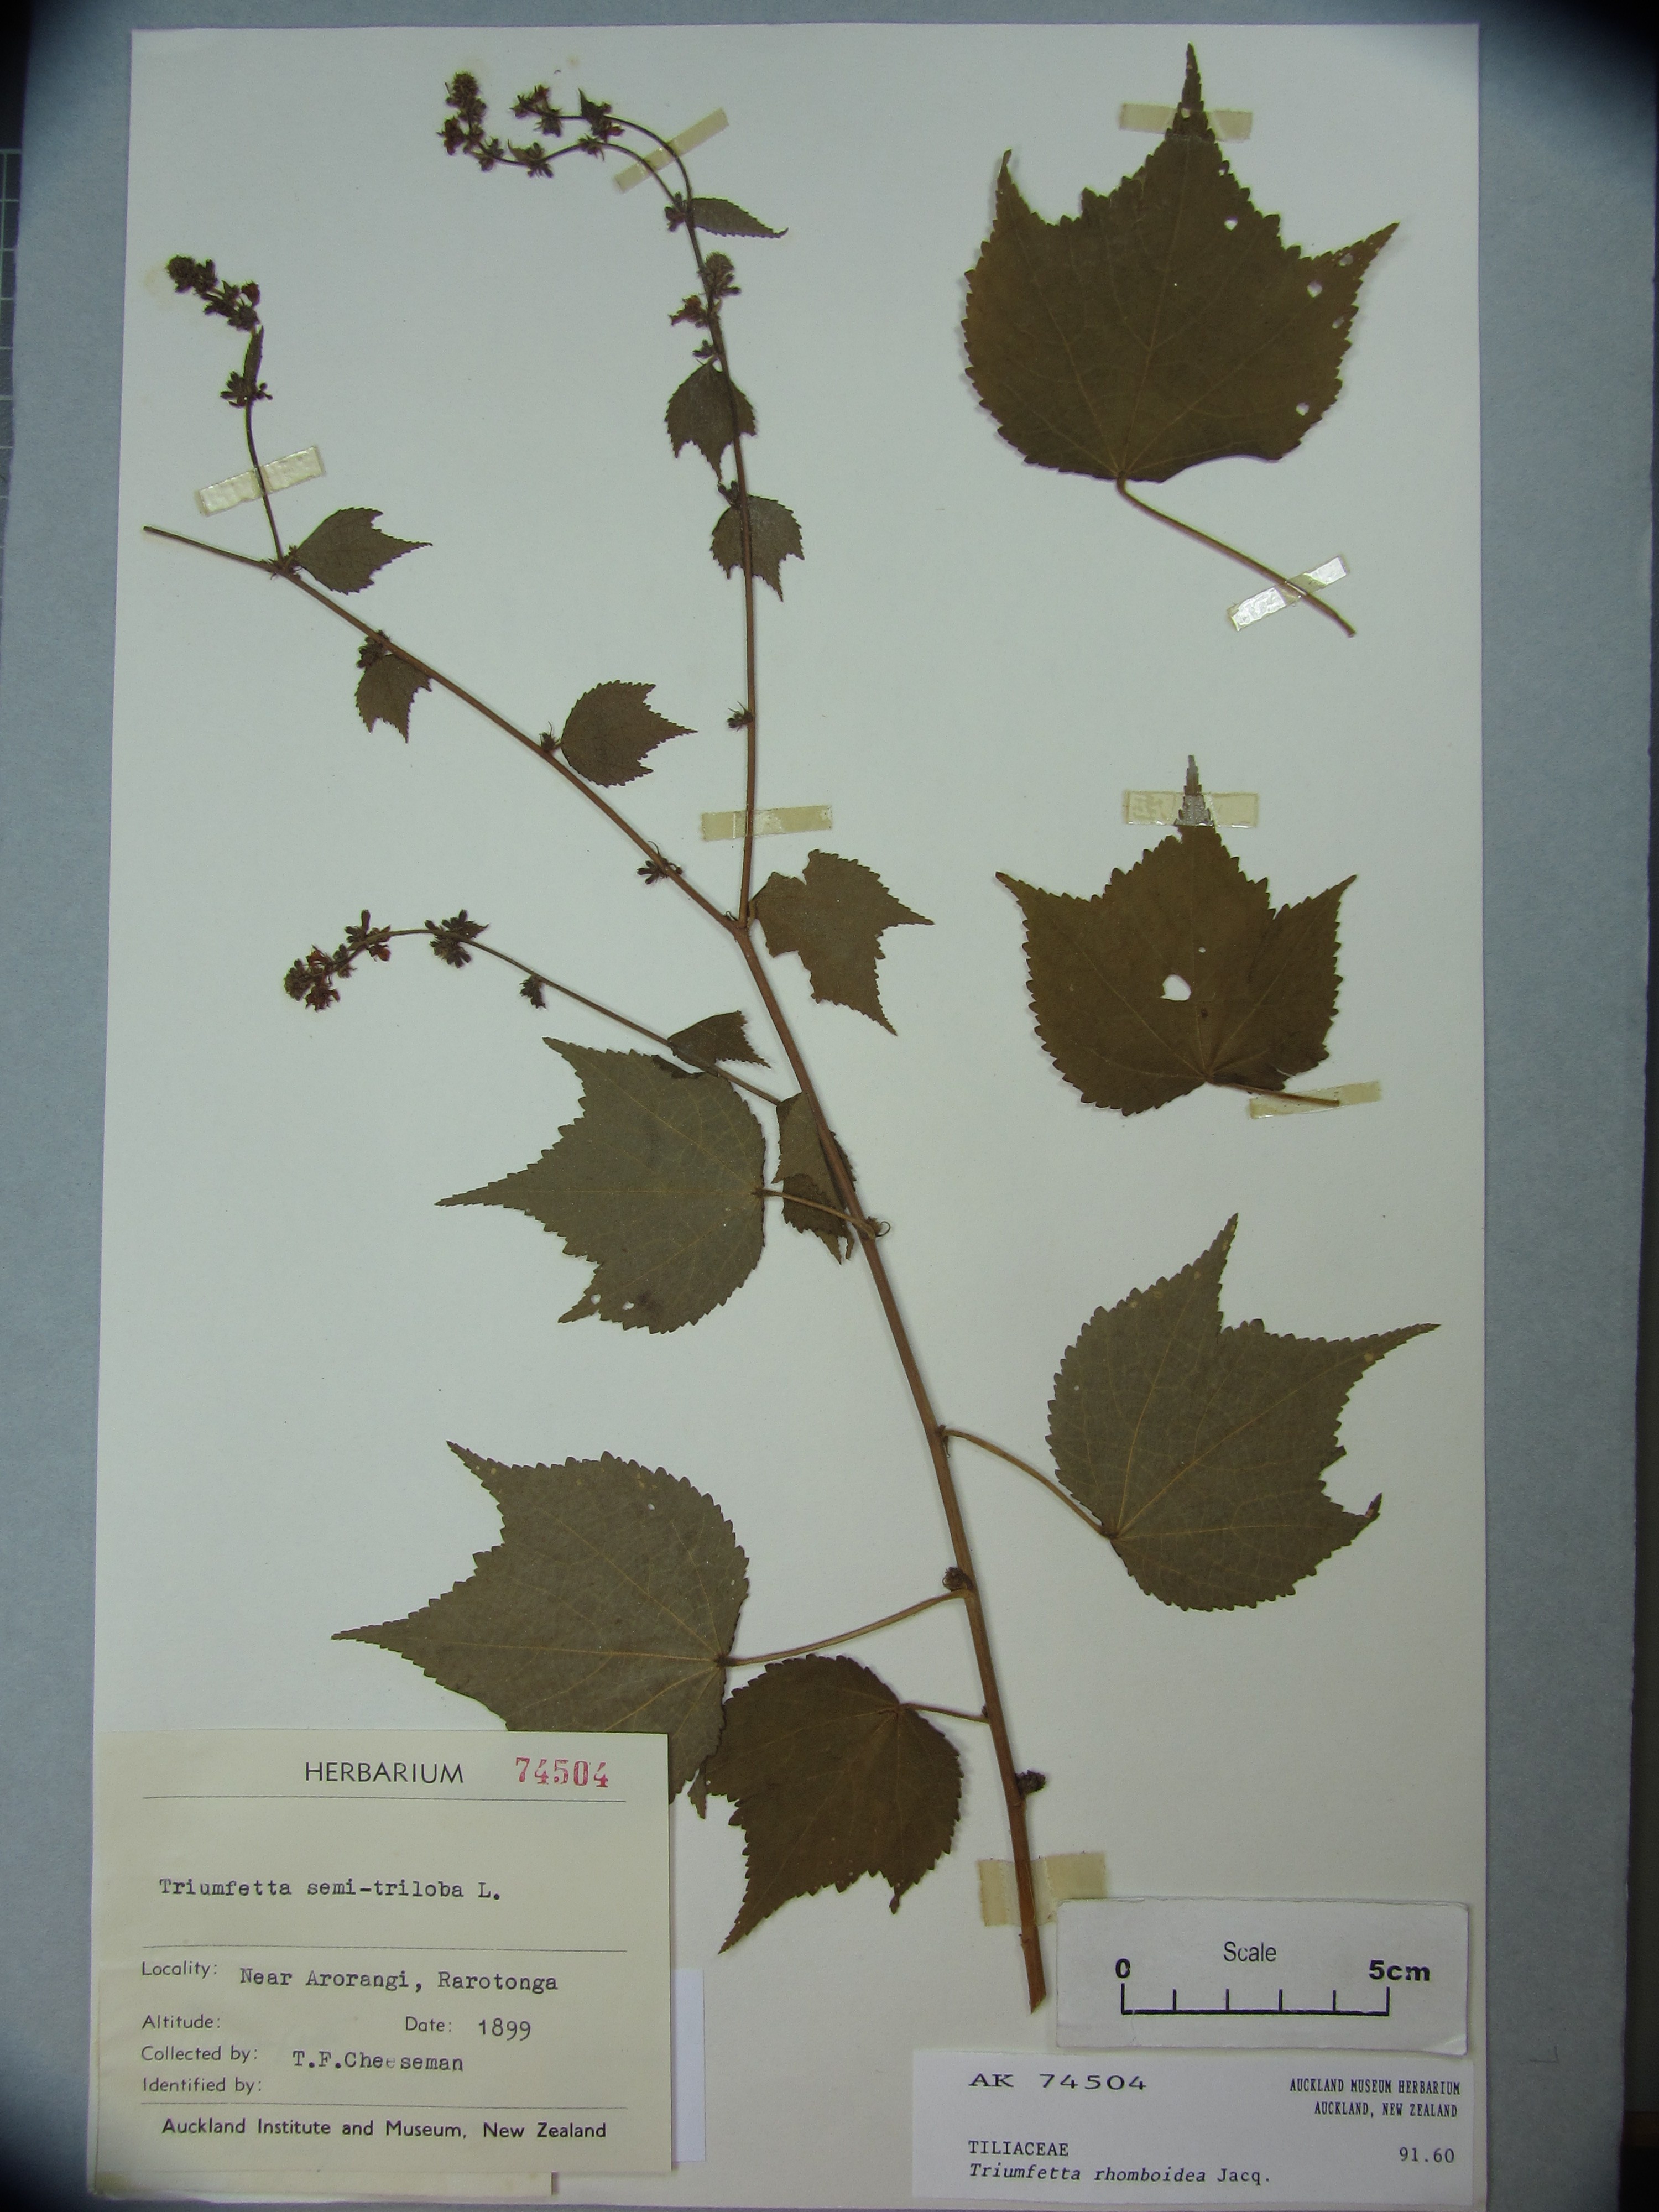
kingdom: Plantae
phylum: Tracheophyta
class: Magnoliopsida
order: Malvales
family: Malvaceae
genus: Triumfetta
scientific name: Triumfetta rhomboidea
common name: Diamond burbark
